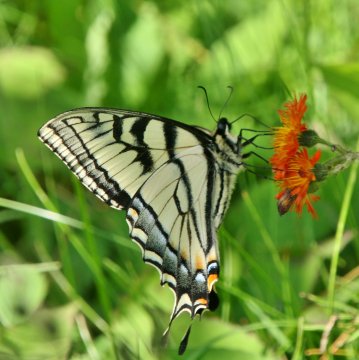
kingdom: Animalia
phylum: Arthropoda
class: Insecta
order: Lepidoptera
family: Papilionidae
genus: Pterourus
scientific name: Pterourus canadensis
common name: Canadian Tiger Swallowtail
